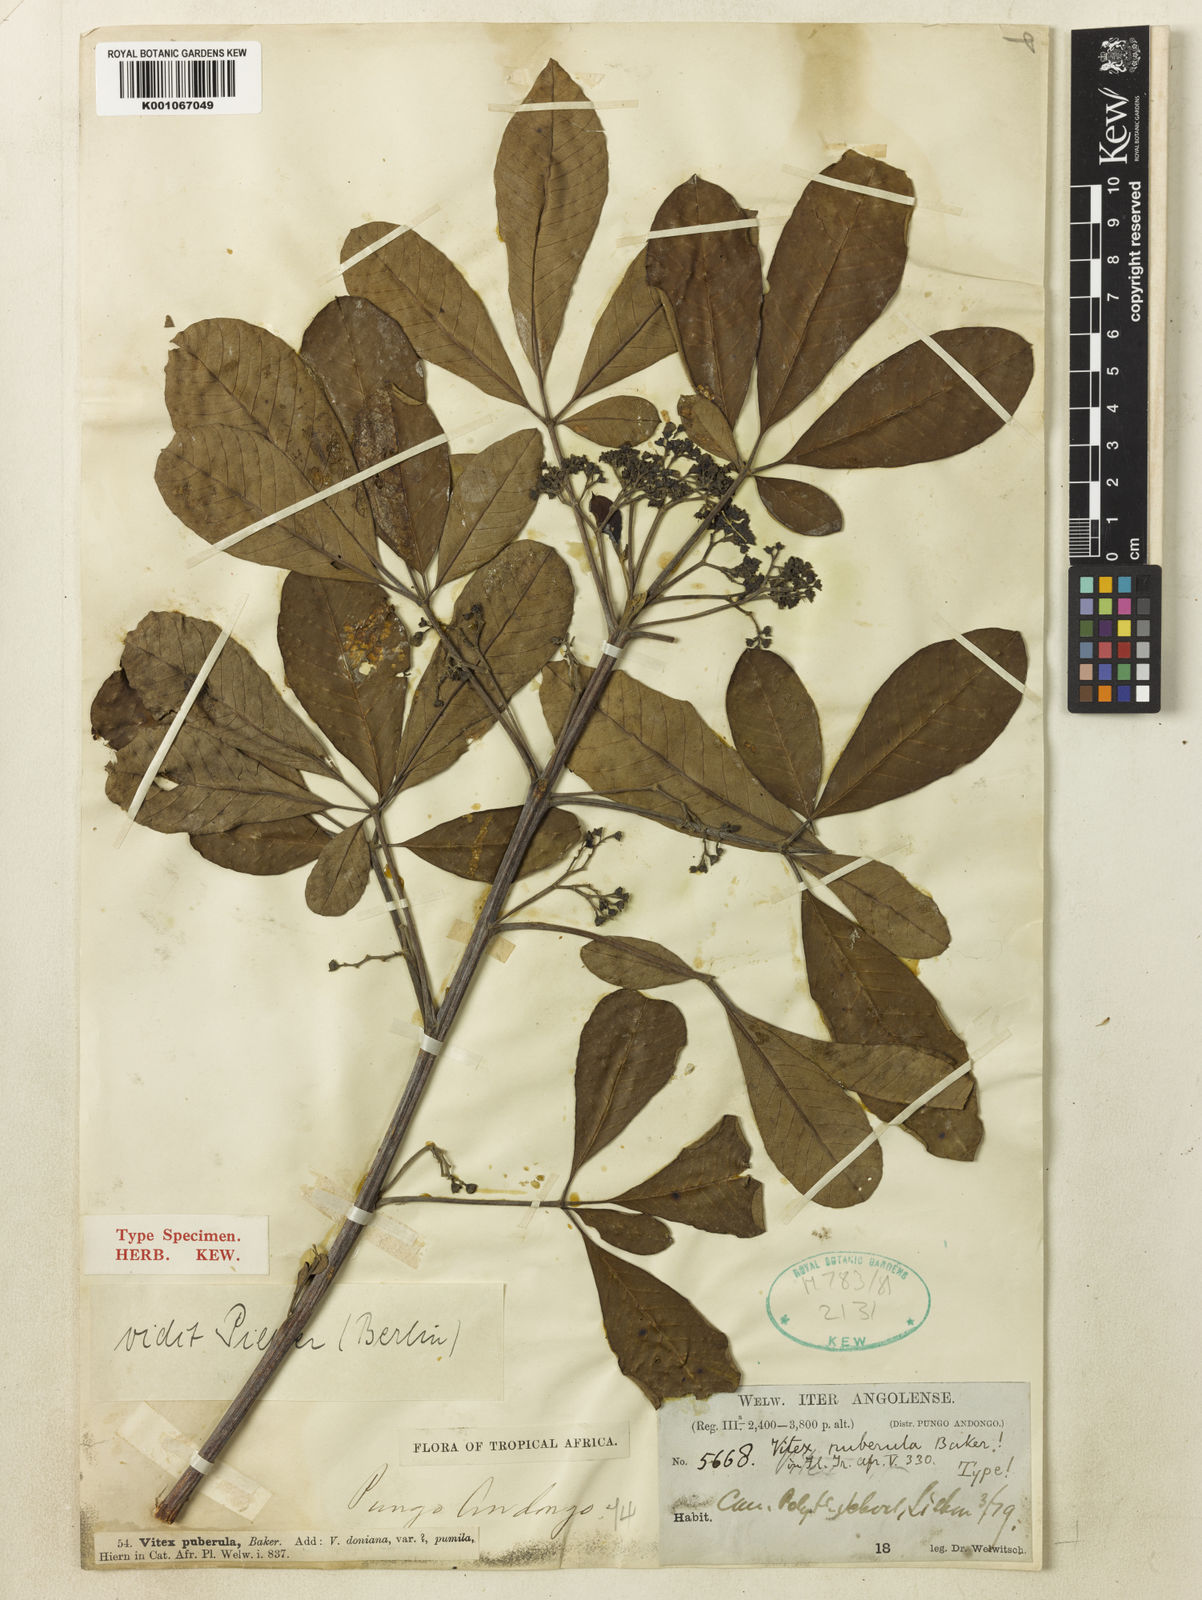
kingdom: Plantae
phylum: Tracheophyta
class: Magnoliopsida
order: Lamiales
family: Lamiaceae
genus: Vitex
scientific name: Vitex doniana
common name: Black plum
